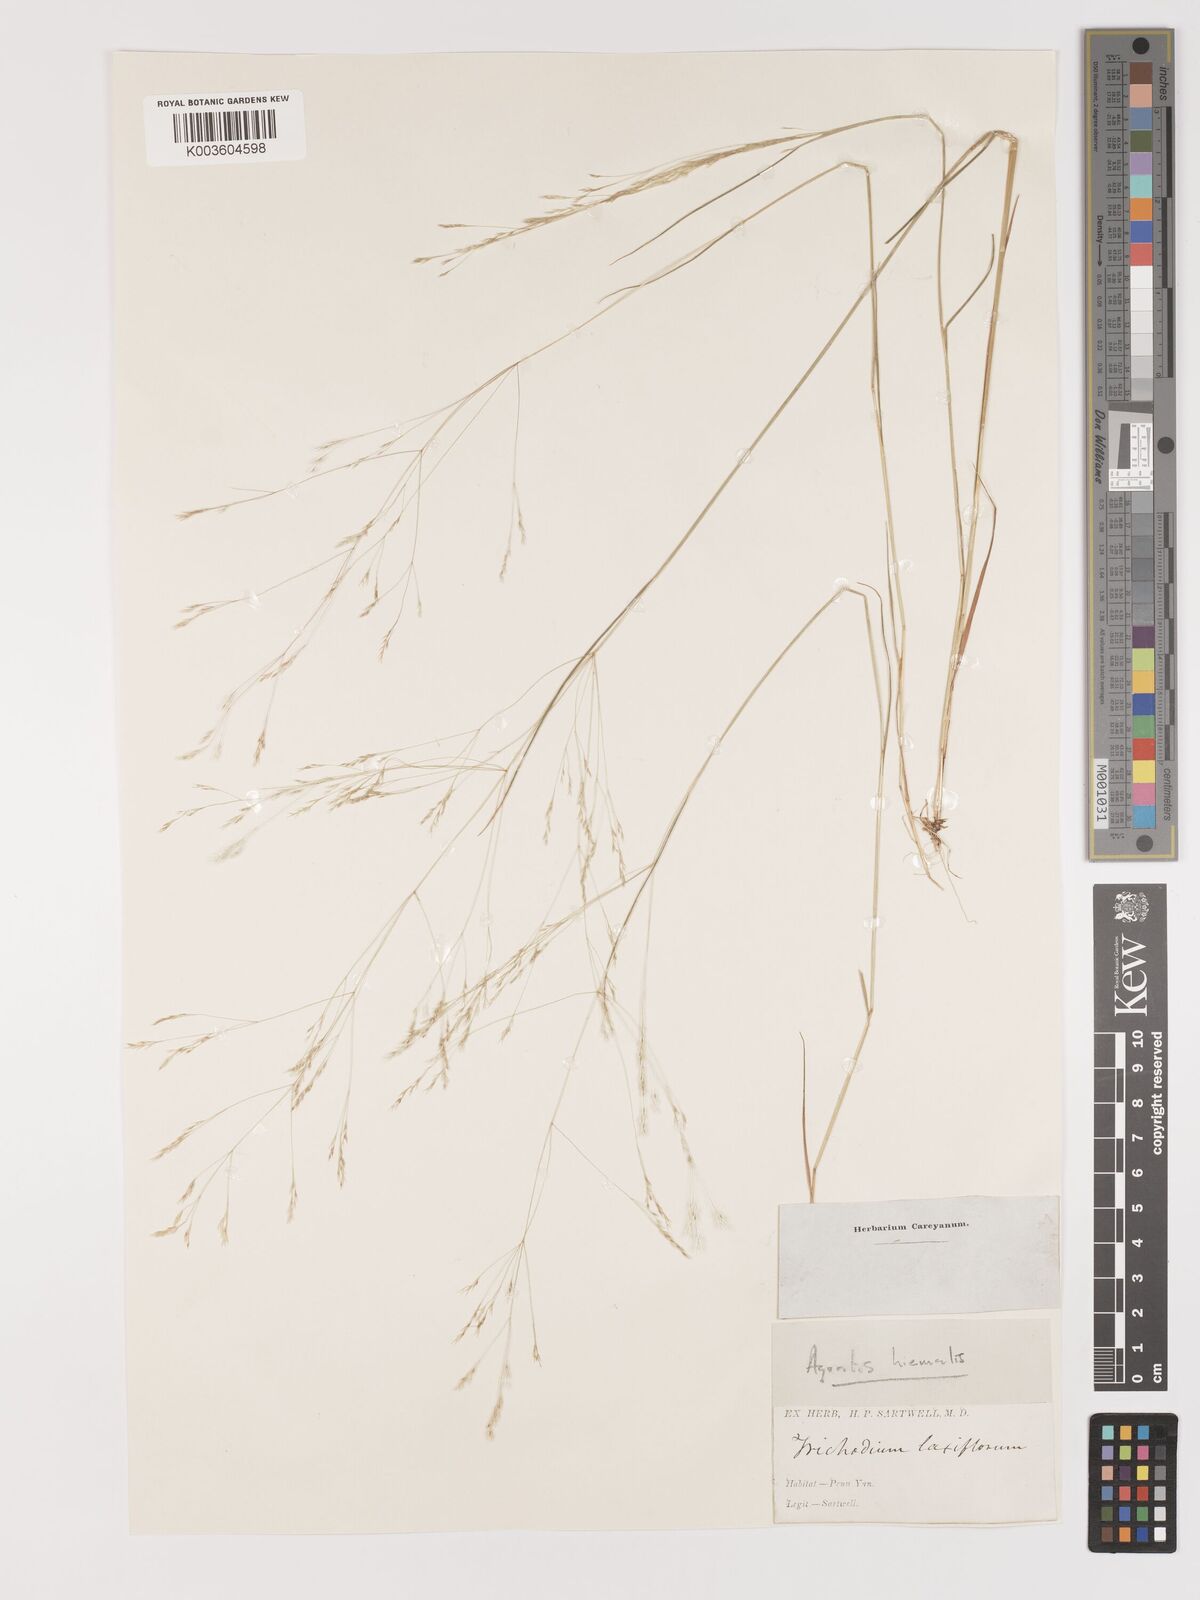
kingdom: Plantae
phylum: Tracheophyta
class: Liliopsida
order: Poales
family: Poaceae
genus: Agrostis
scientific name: Agrostis hyemalis
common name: Small bent
